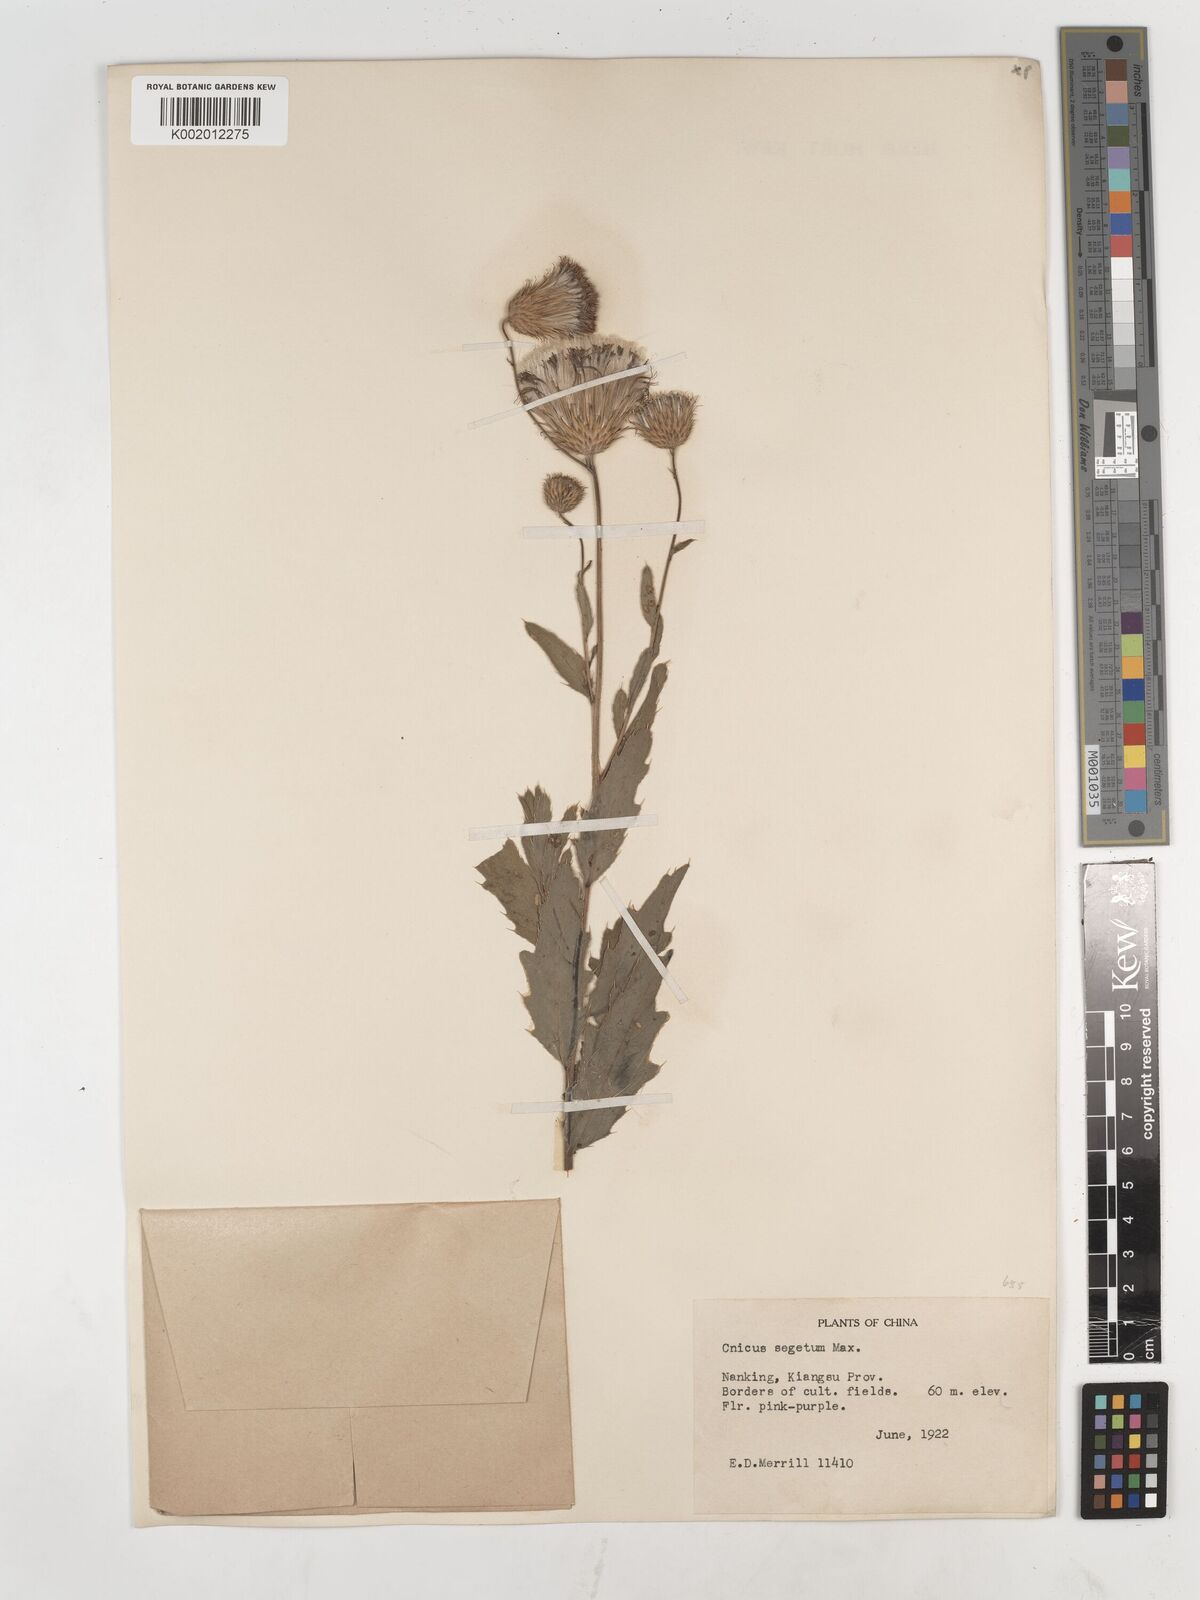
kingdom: Plantae
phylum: Tracheophyta
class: Magnoliopsida
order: Asterales
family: Asteraceae
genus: Cirsium
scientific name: Cirsium arvense
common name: Creeping thistle
